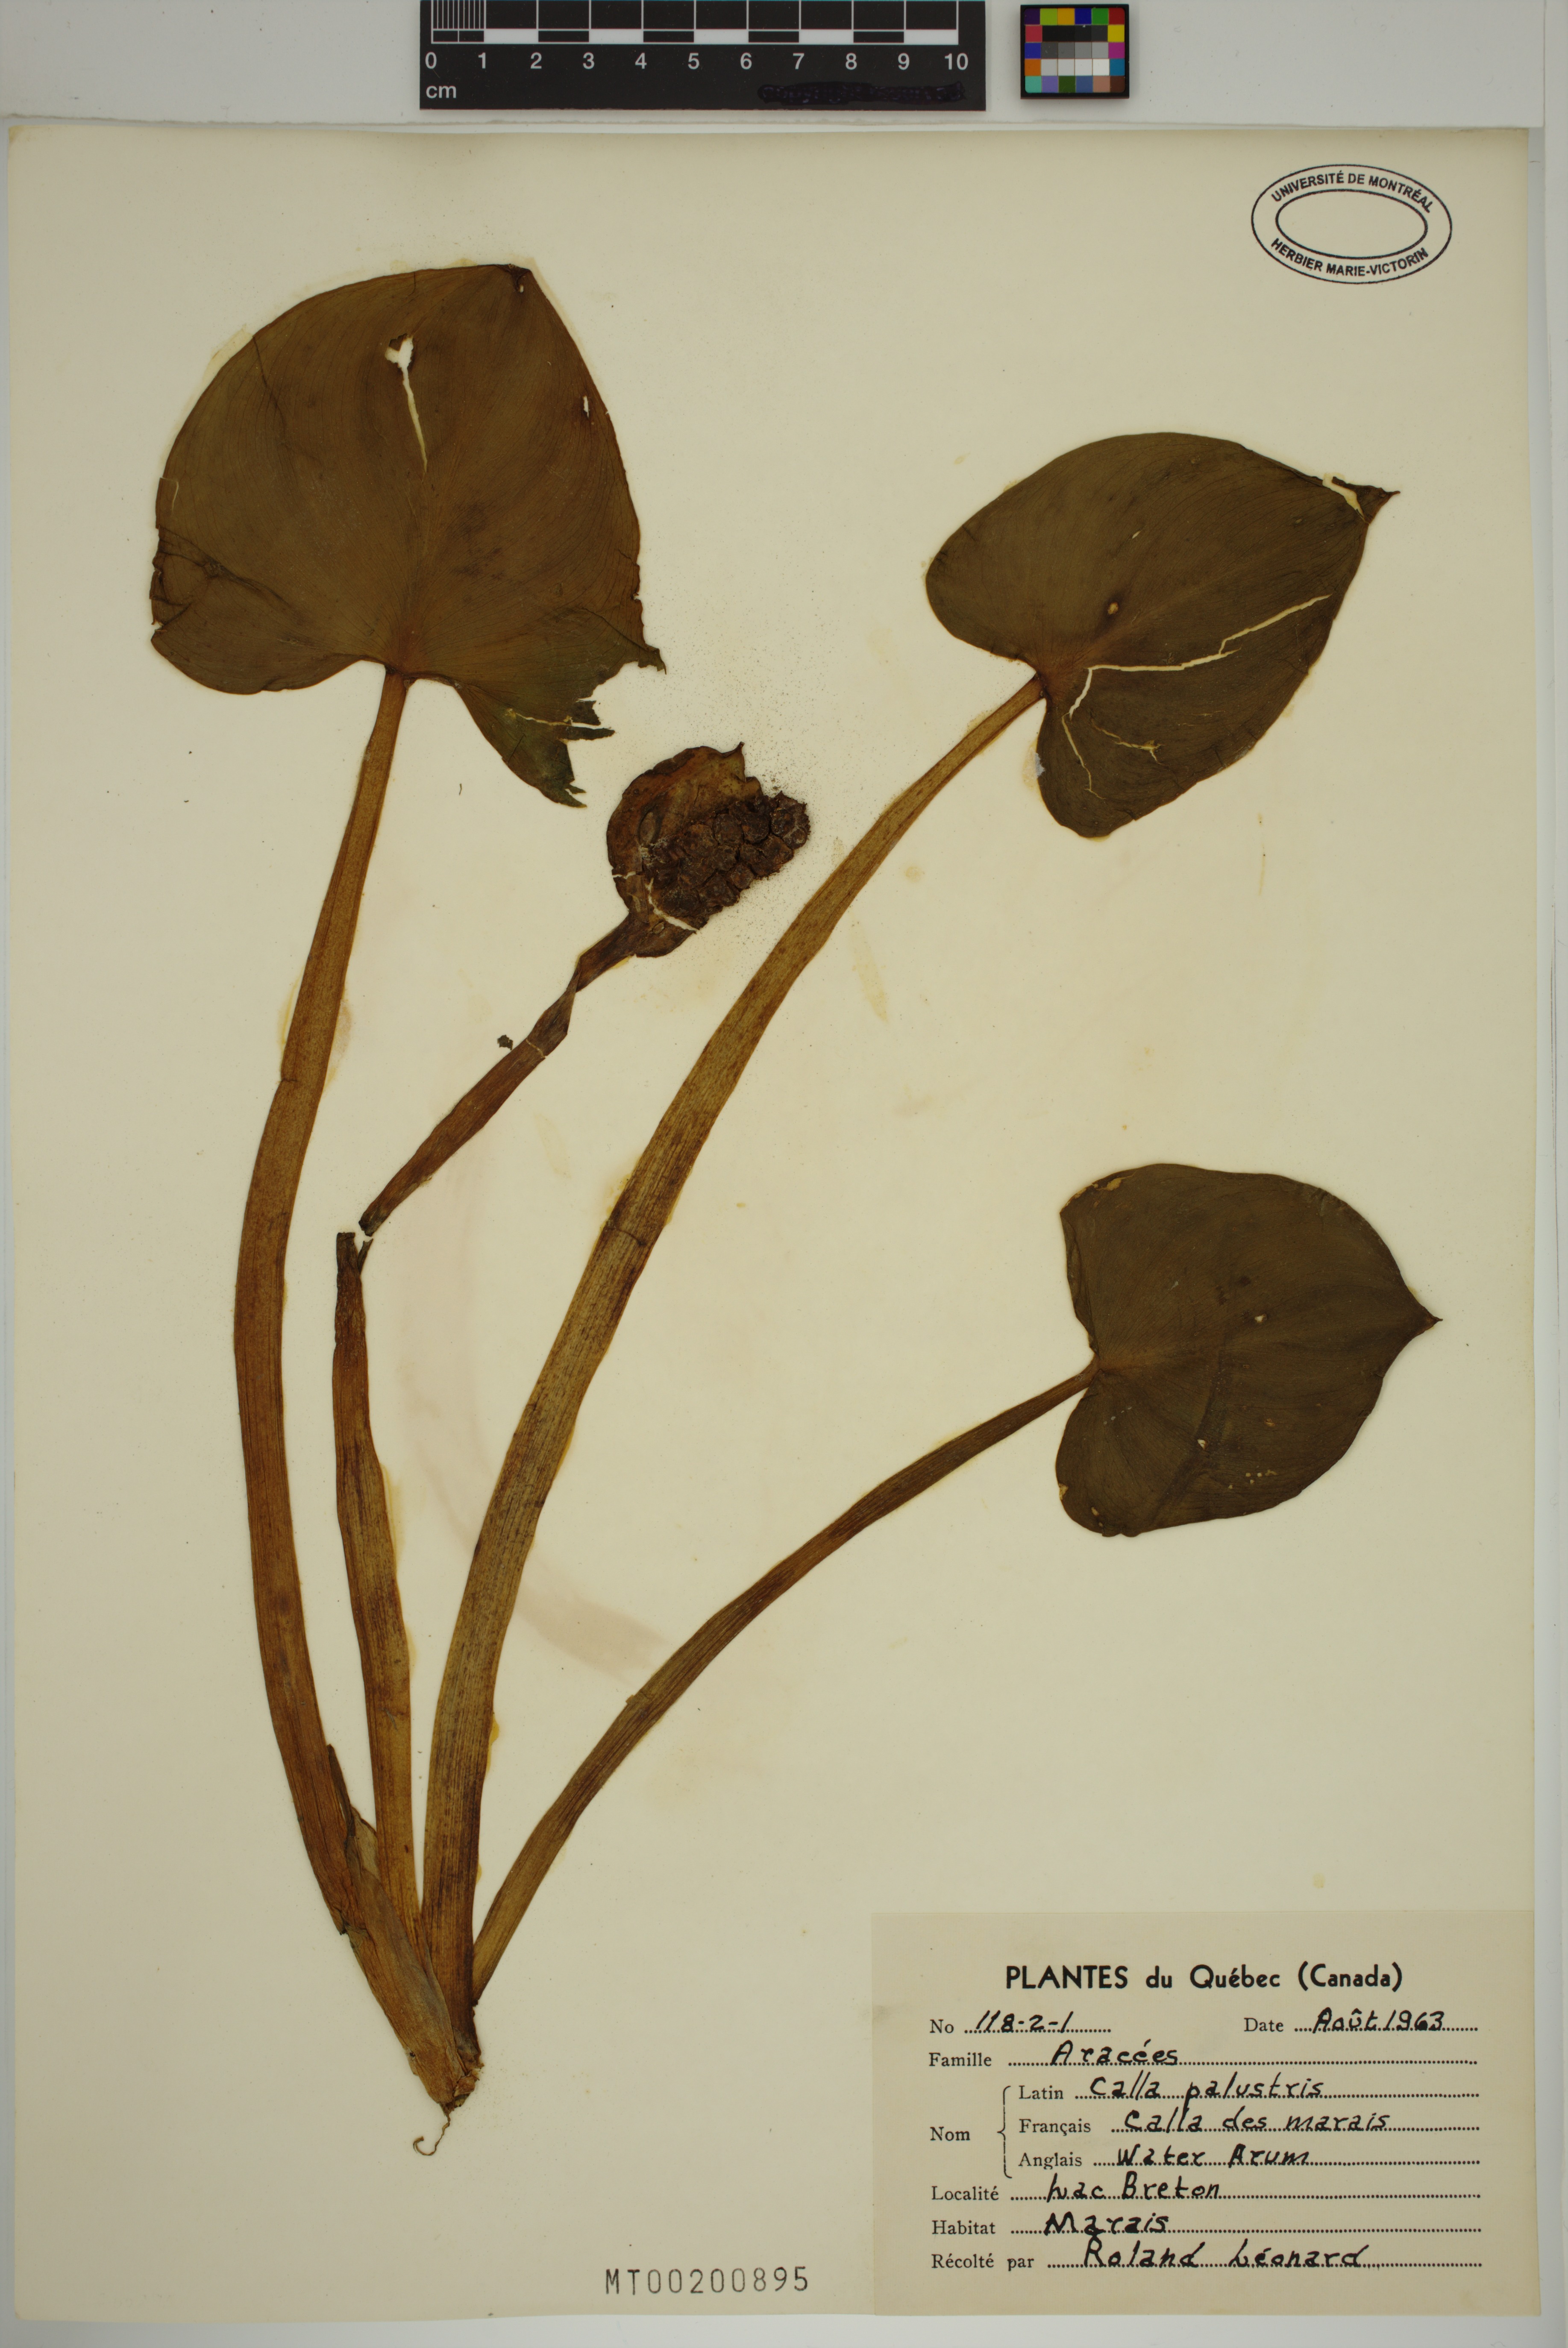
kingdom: Plantae
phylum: Tracheophyta
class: Liliopsida
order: Alismatales
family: Araceae
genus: Calla
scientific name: Calla palustris
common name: Bog arum
